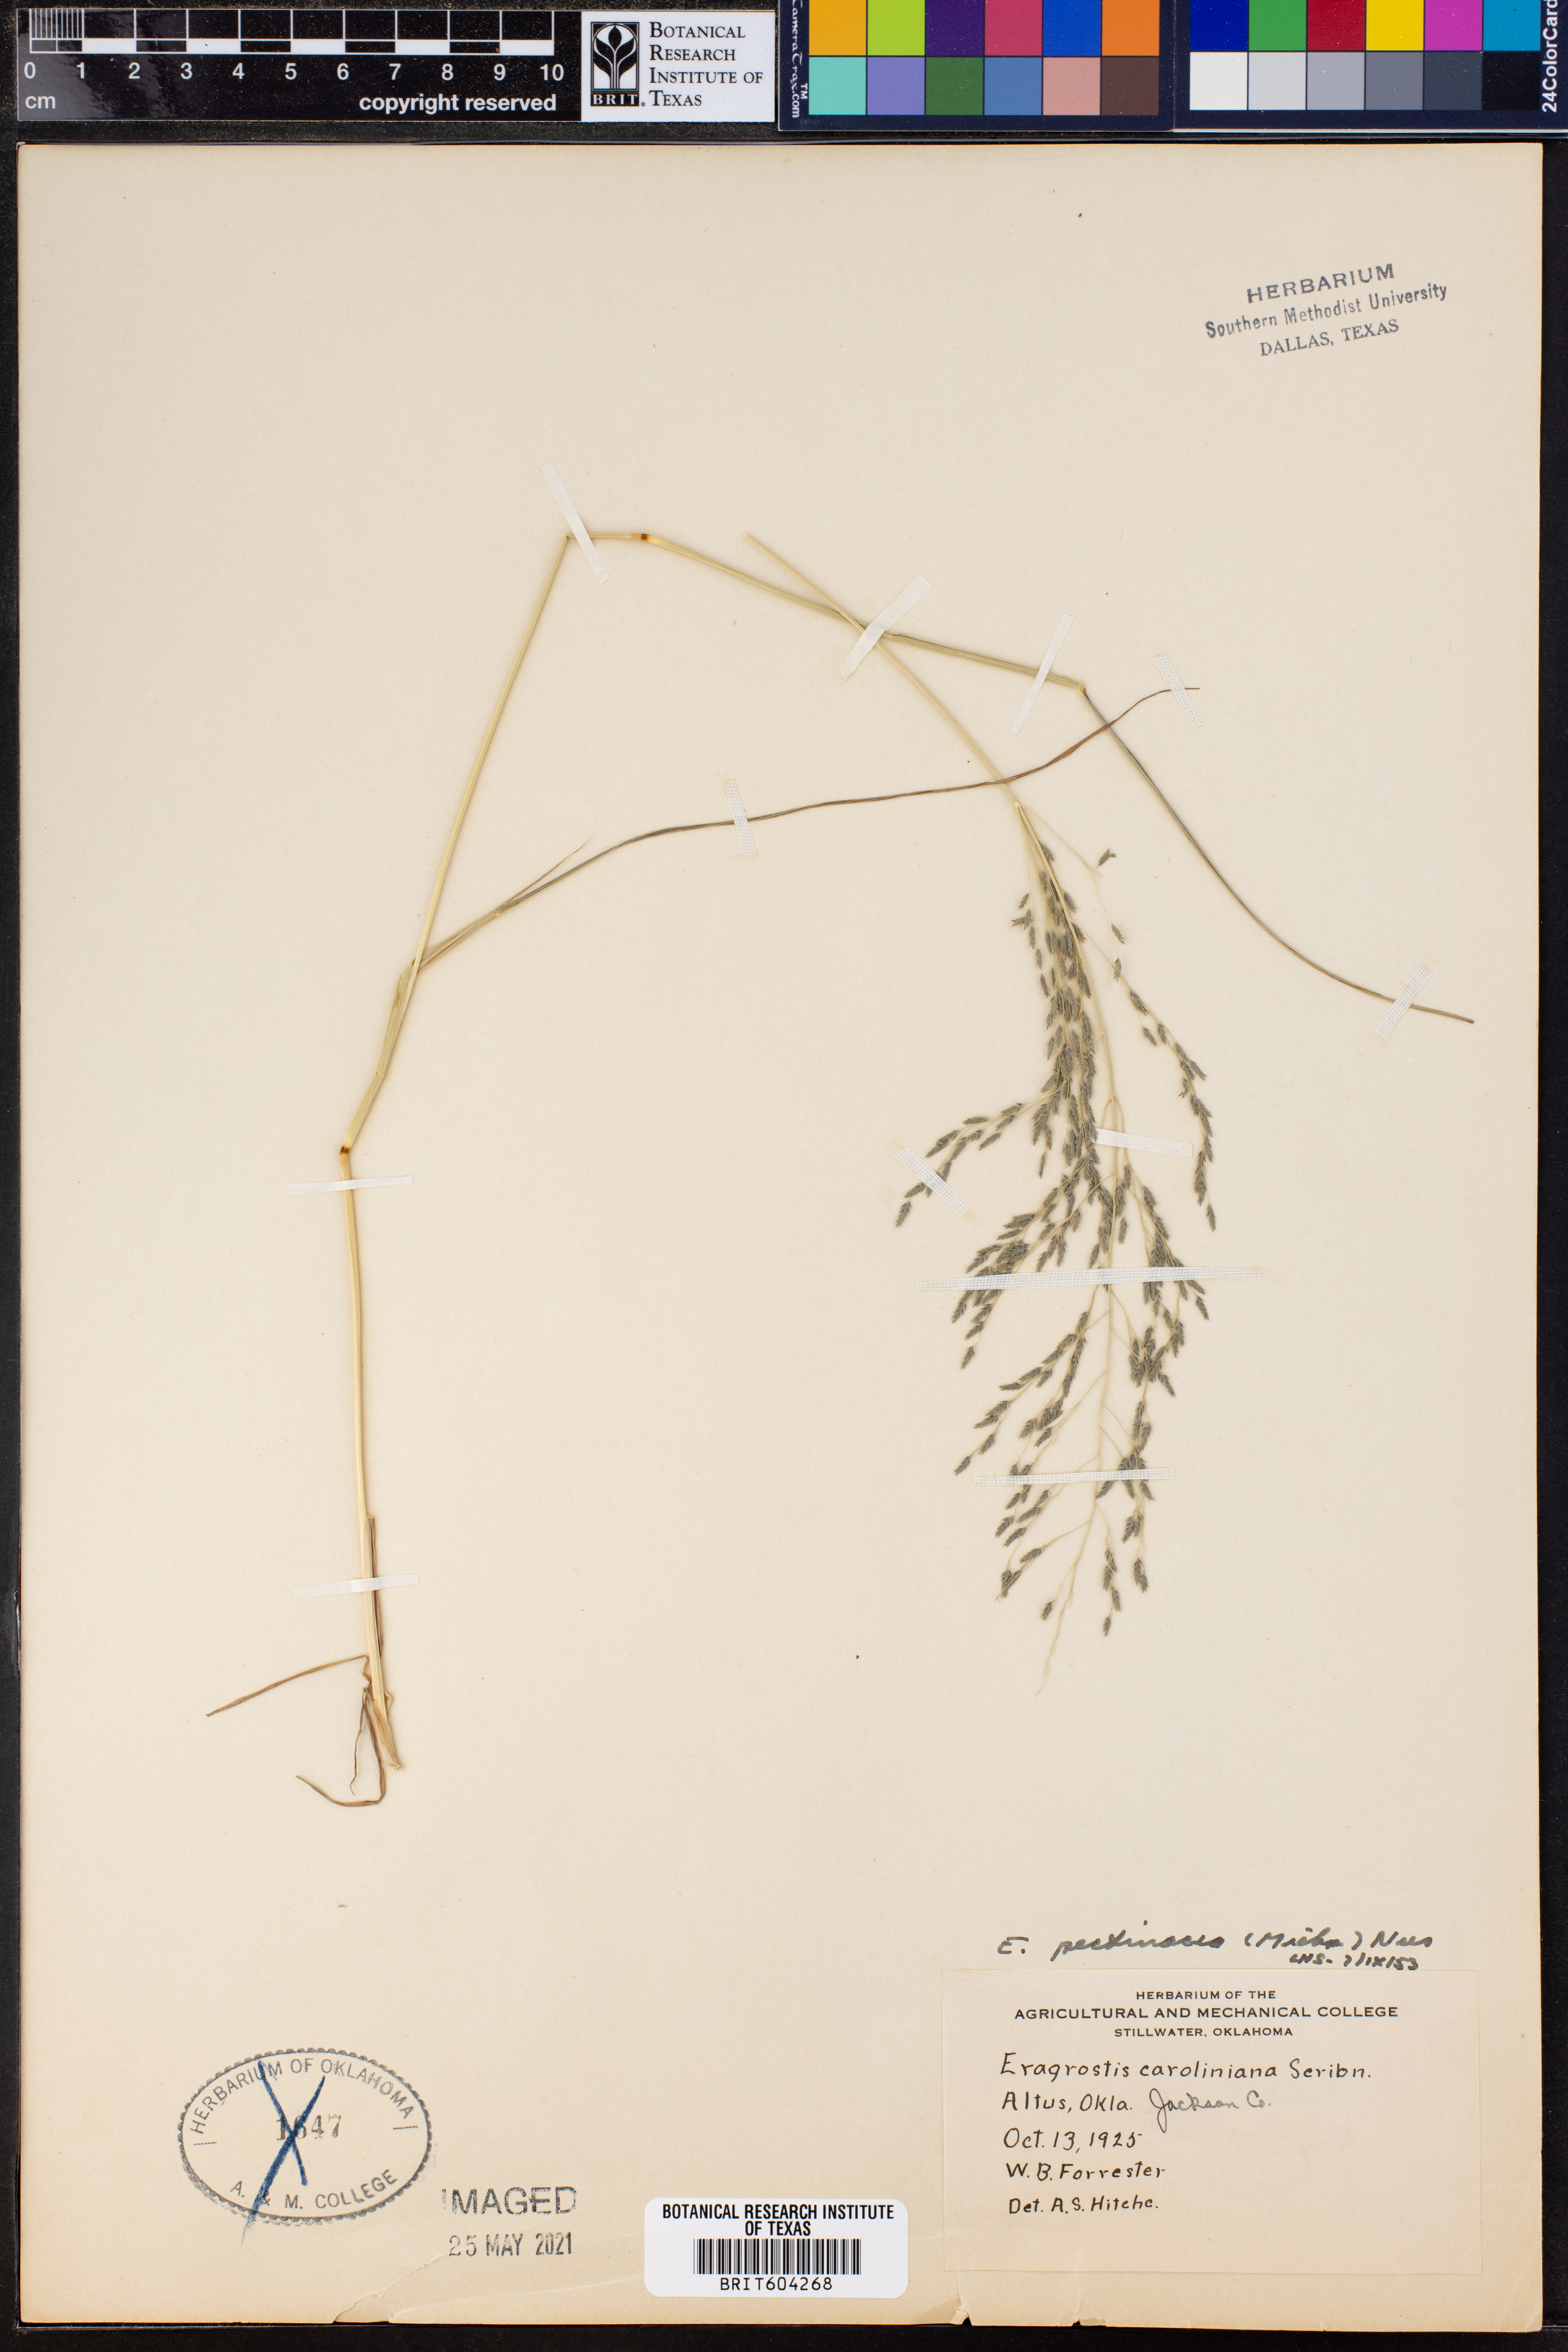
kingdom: Plantae
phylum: Tracheophyta
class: Liliopsida
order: Poales
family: Poaceae
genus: Eragrostis
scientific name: Eragrostis pectinacea
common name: Tufted lovegrass
